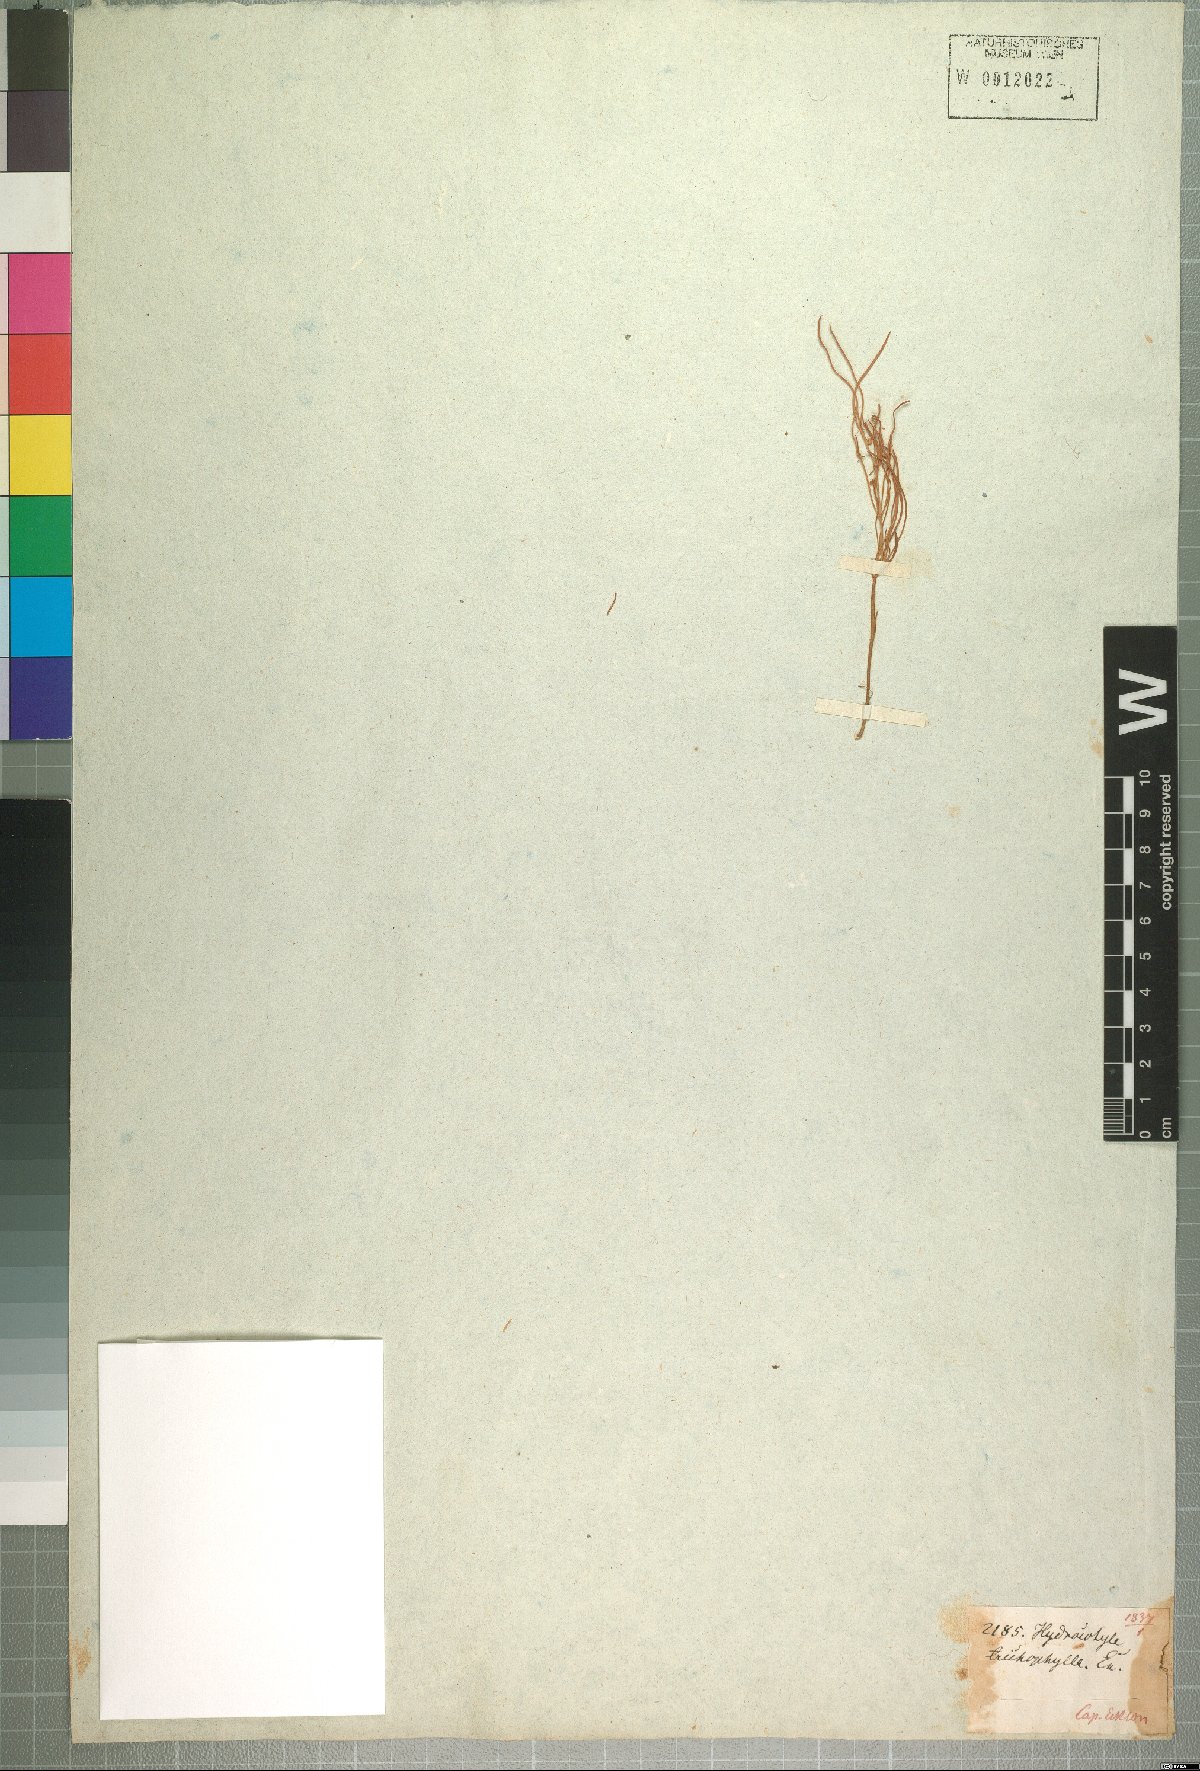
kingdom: Plantae
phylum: Tracheophyta
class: Magnoliopsida
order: Apiales
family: Apiaceae
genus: Centella
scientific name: Centella virgata
